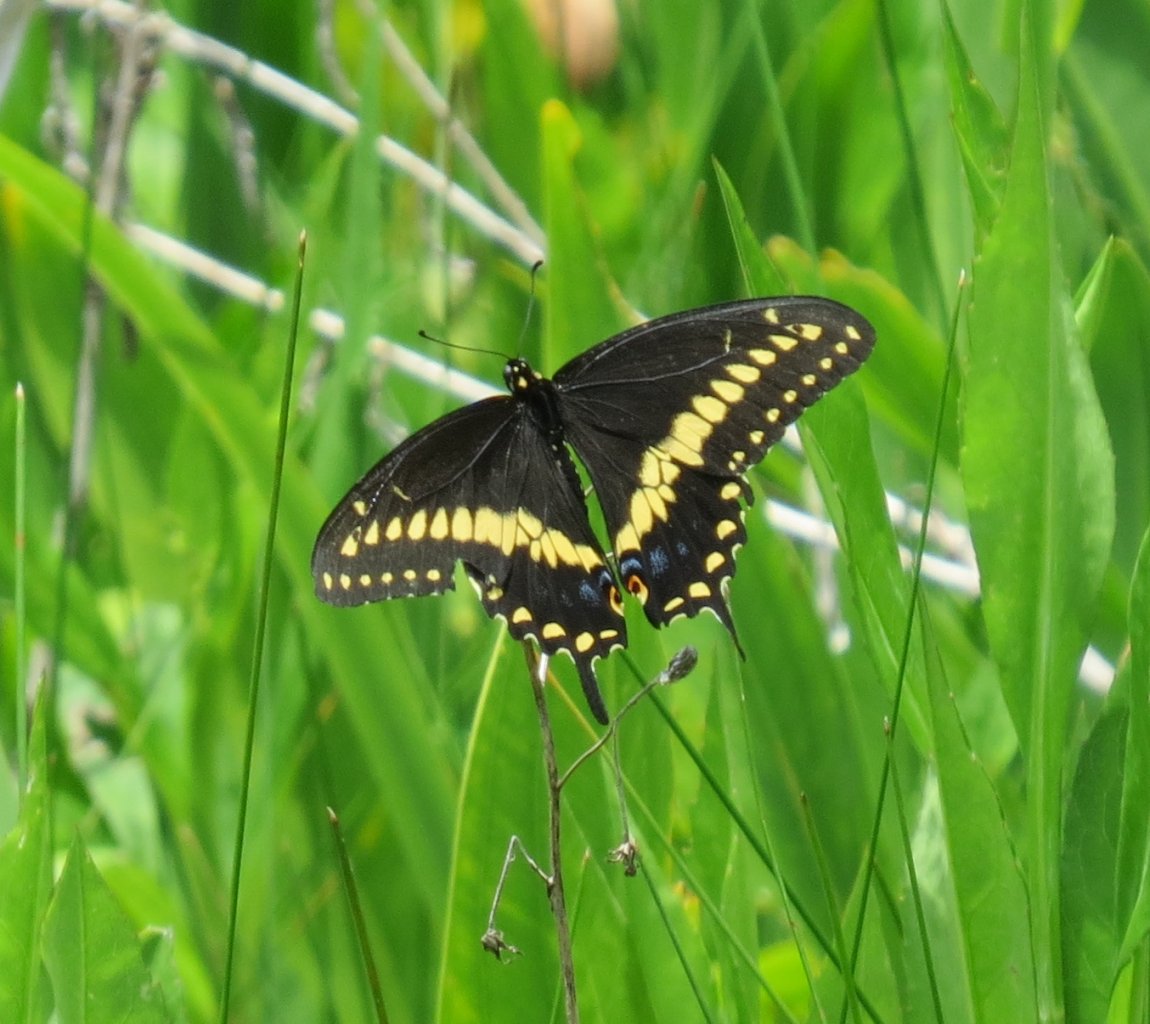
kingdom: Animalia
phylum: Arthropoda
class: Insecta
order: Lepidoptera
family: Papilionidae
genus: Papilio
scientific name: Papilio polyxenes
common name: Black Swallowtail
